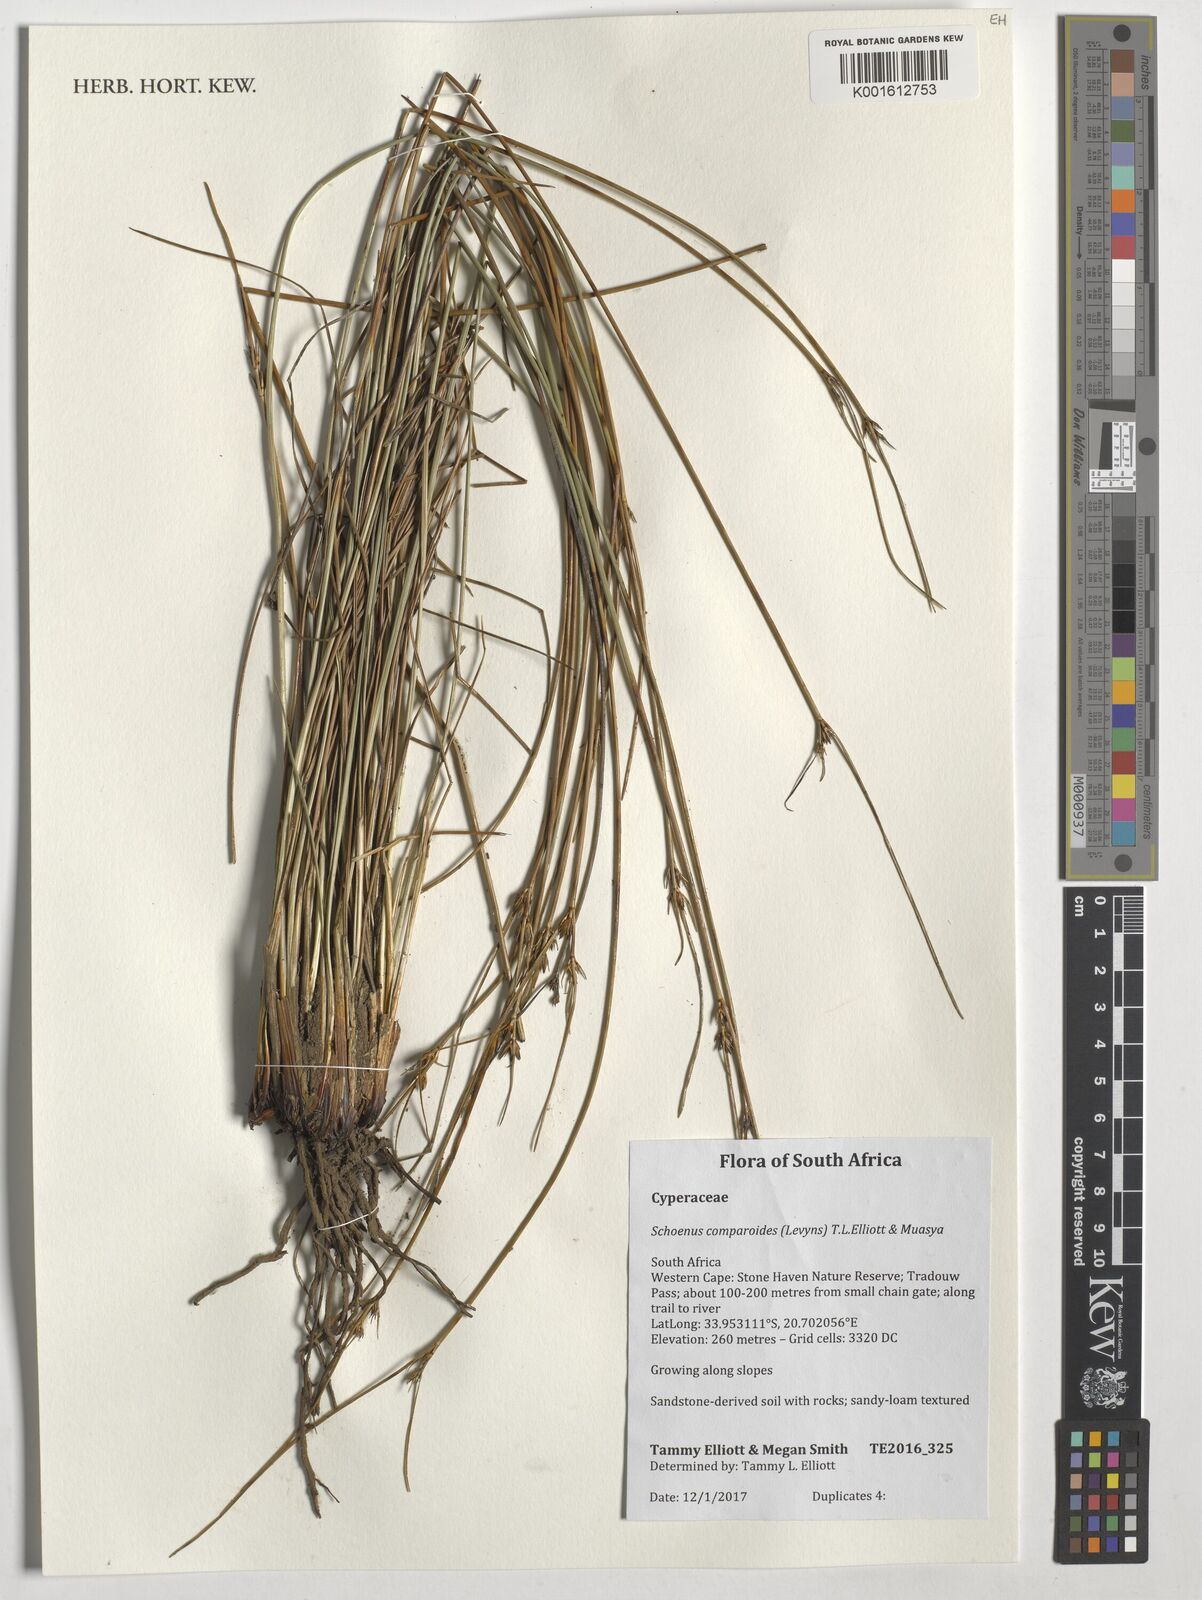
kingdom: Plantae
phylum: Tracheophyta
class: Liliopsida
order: Poales
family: Cyperaceae
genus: Schoenus
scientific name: Schoenus comparoides
